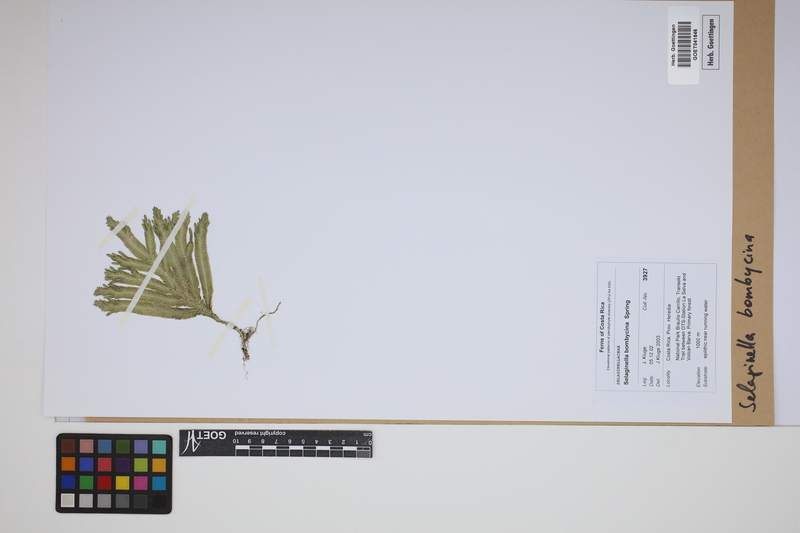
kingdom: Plantae
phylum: Tracheophyta
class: Lycopodiopsida
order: Selaginellales
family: Selaginellaceae
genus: Selaginella
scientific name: Selaginella bombycina
